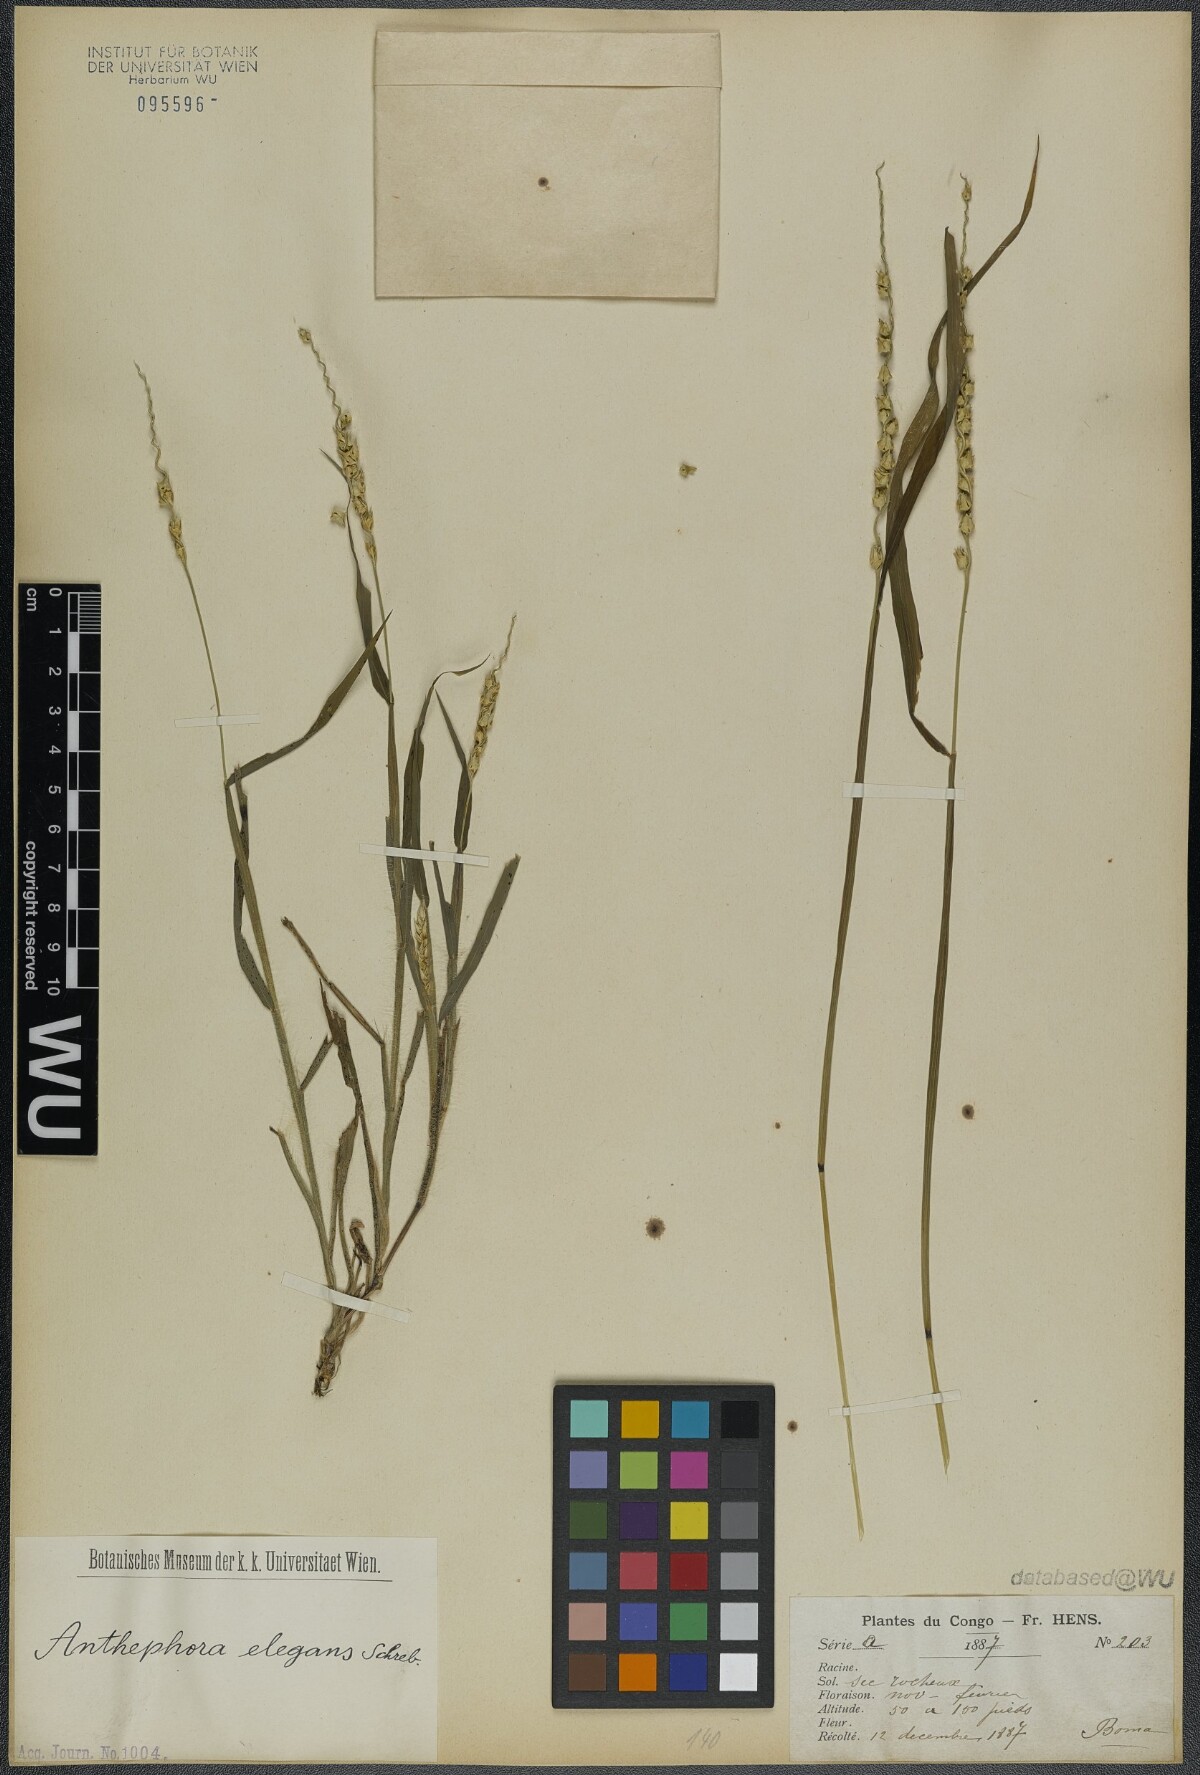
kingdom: Plantae
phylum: Tracheophyta
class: Liliopsida
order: Poales
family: Poaceae
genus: Anthephora
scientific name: Anthephora hermaphrodita
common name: Oldfield grass
